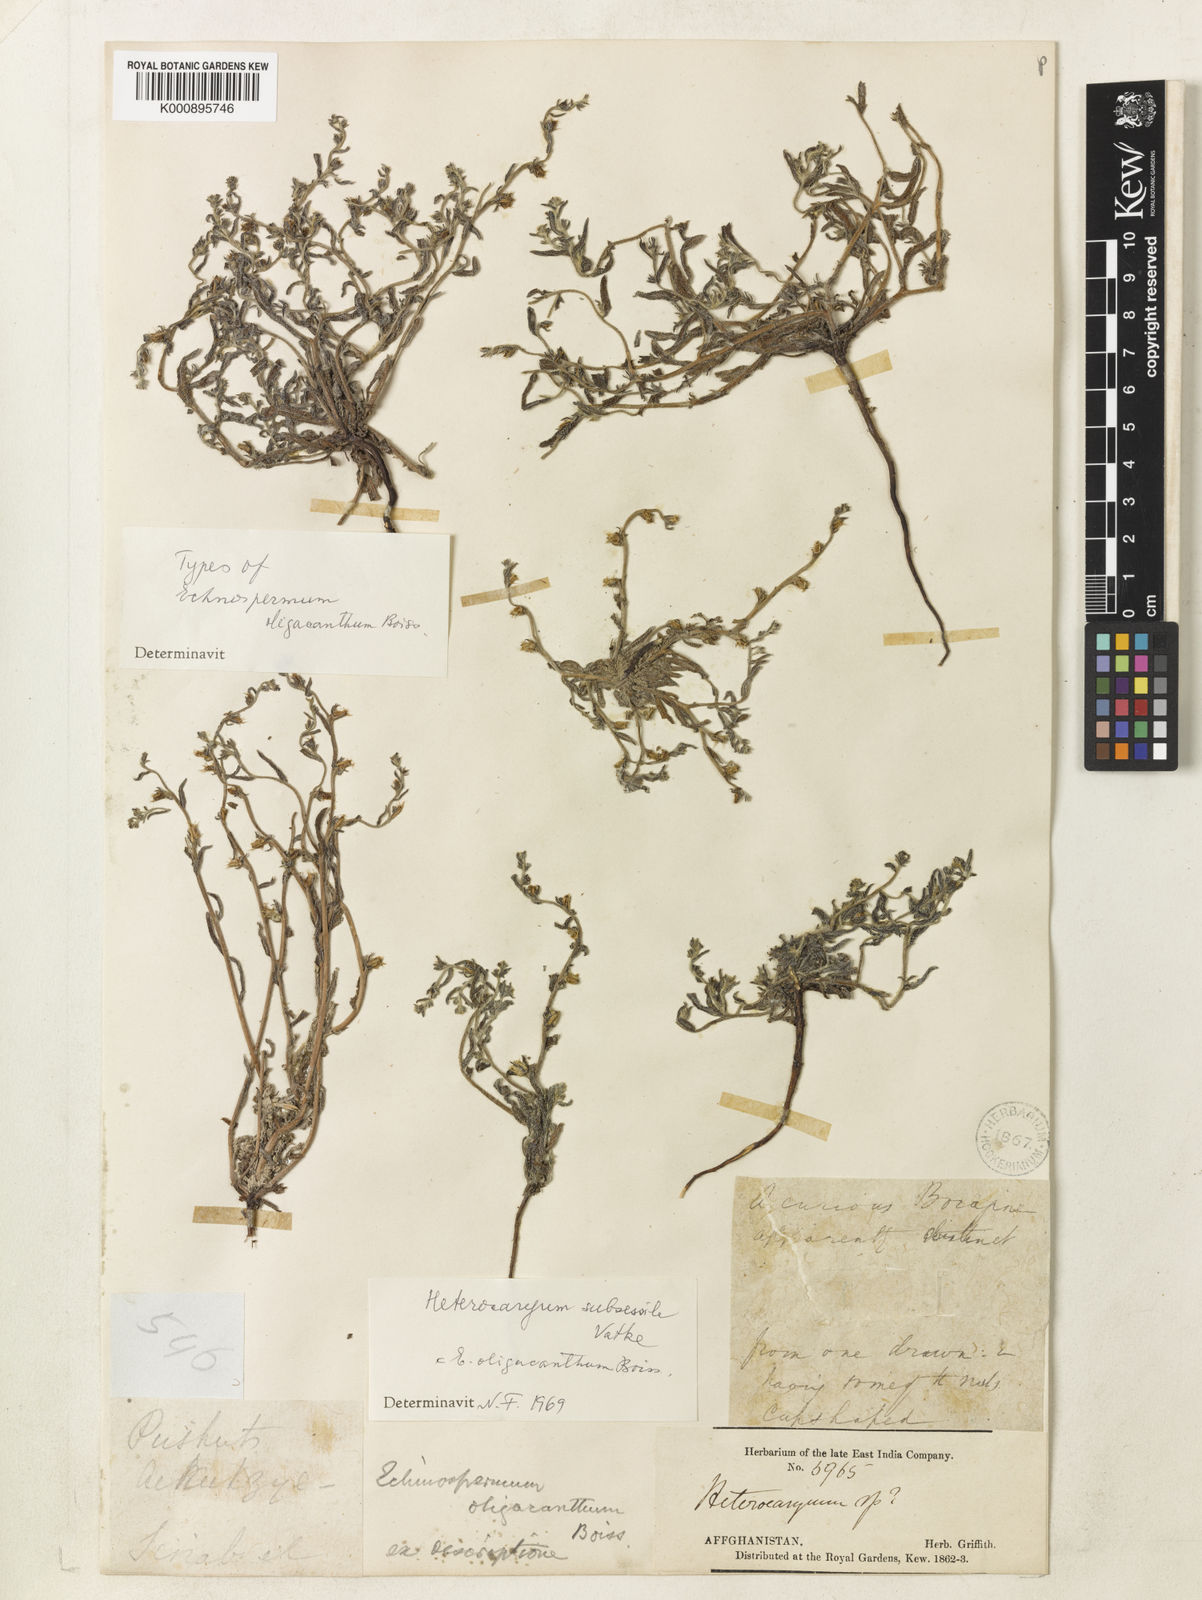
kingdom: Plantae
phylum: Tracheophyta
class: Magnoliopsida
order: Boraginales
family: Boraginaceae
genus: Lappula
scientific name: Lappula
